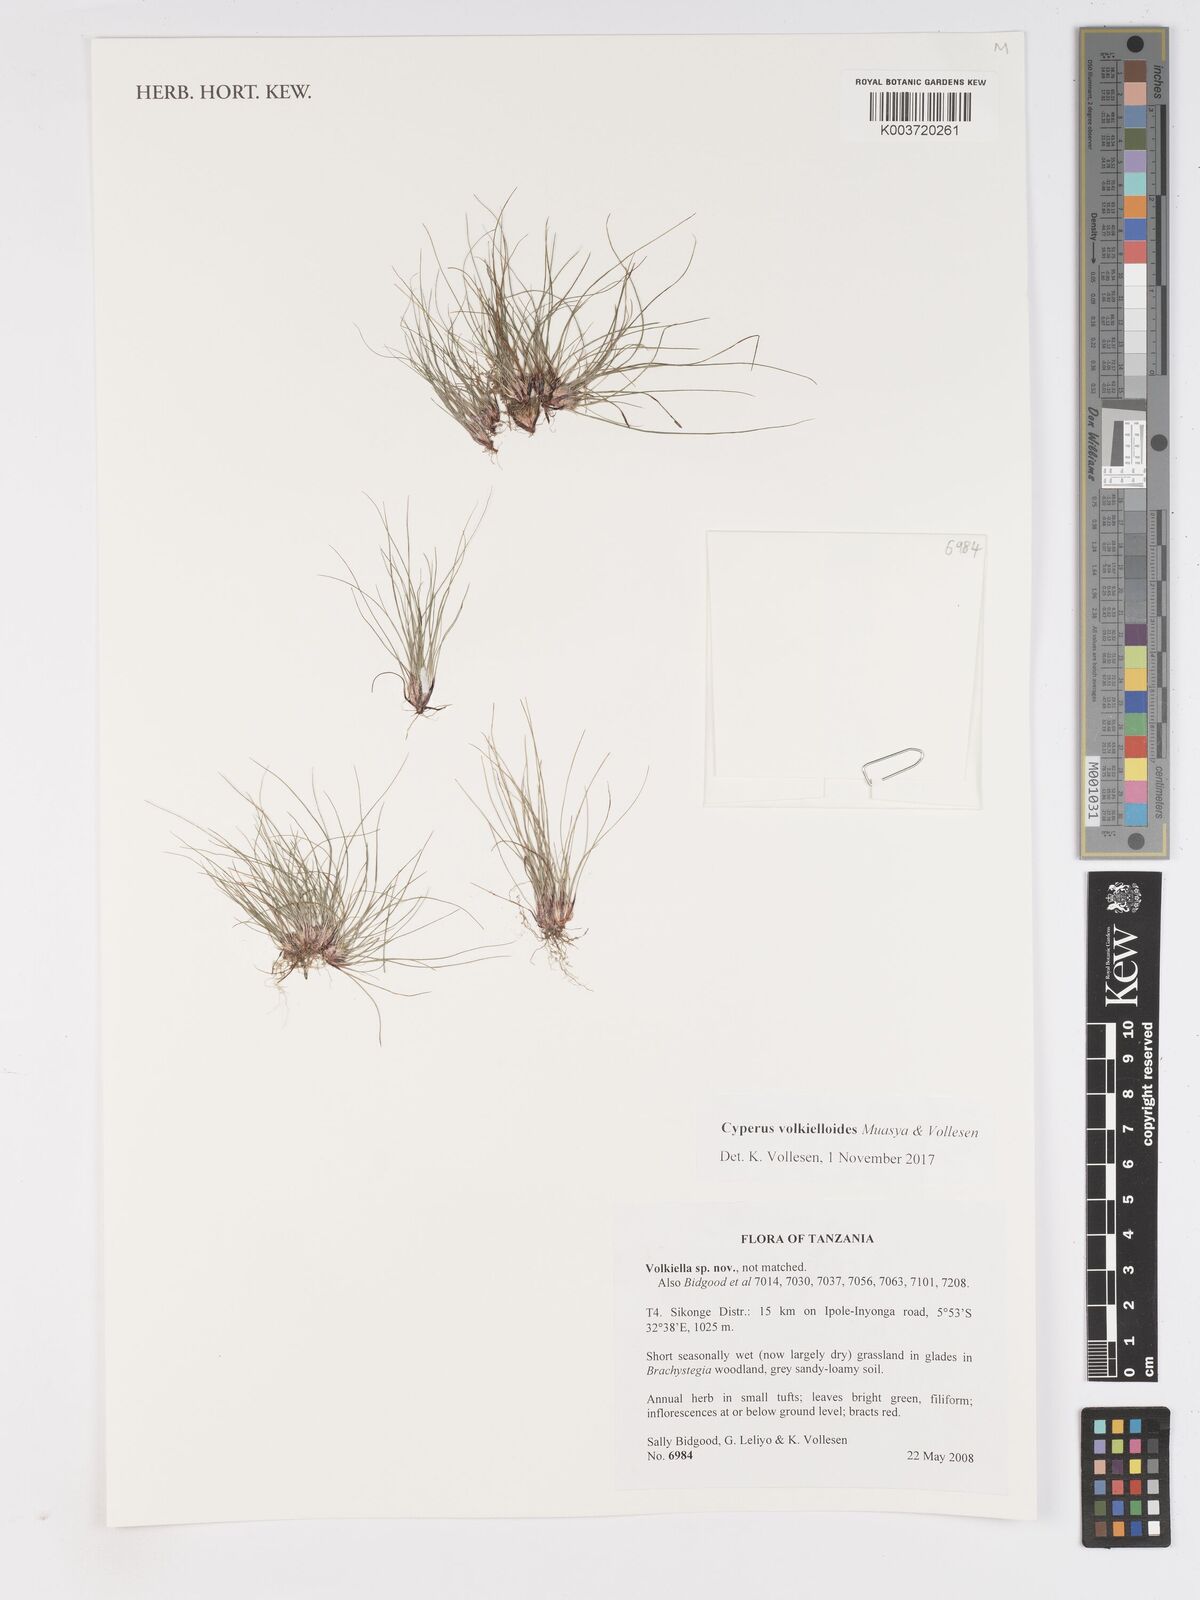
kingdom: Plantae
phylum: Tracheophyta
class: Liliopsida
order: Poales
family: Cyperaceae
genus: Cyperus
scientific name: Cyperus volkielloides
